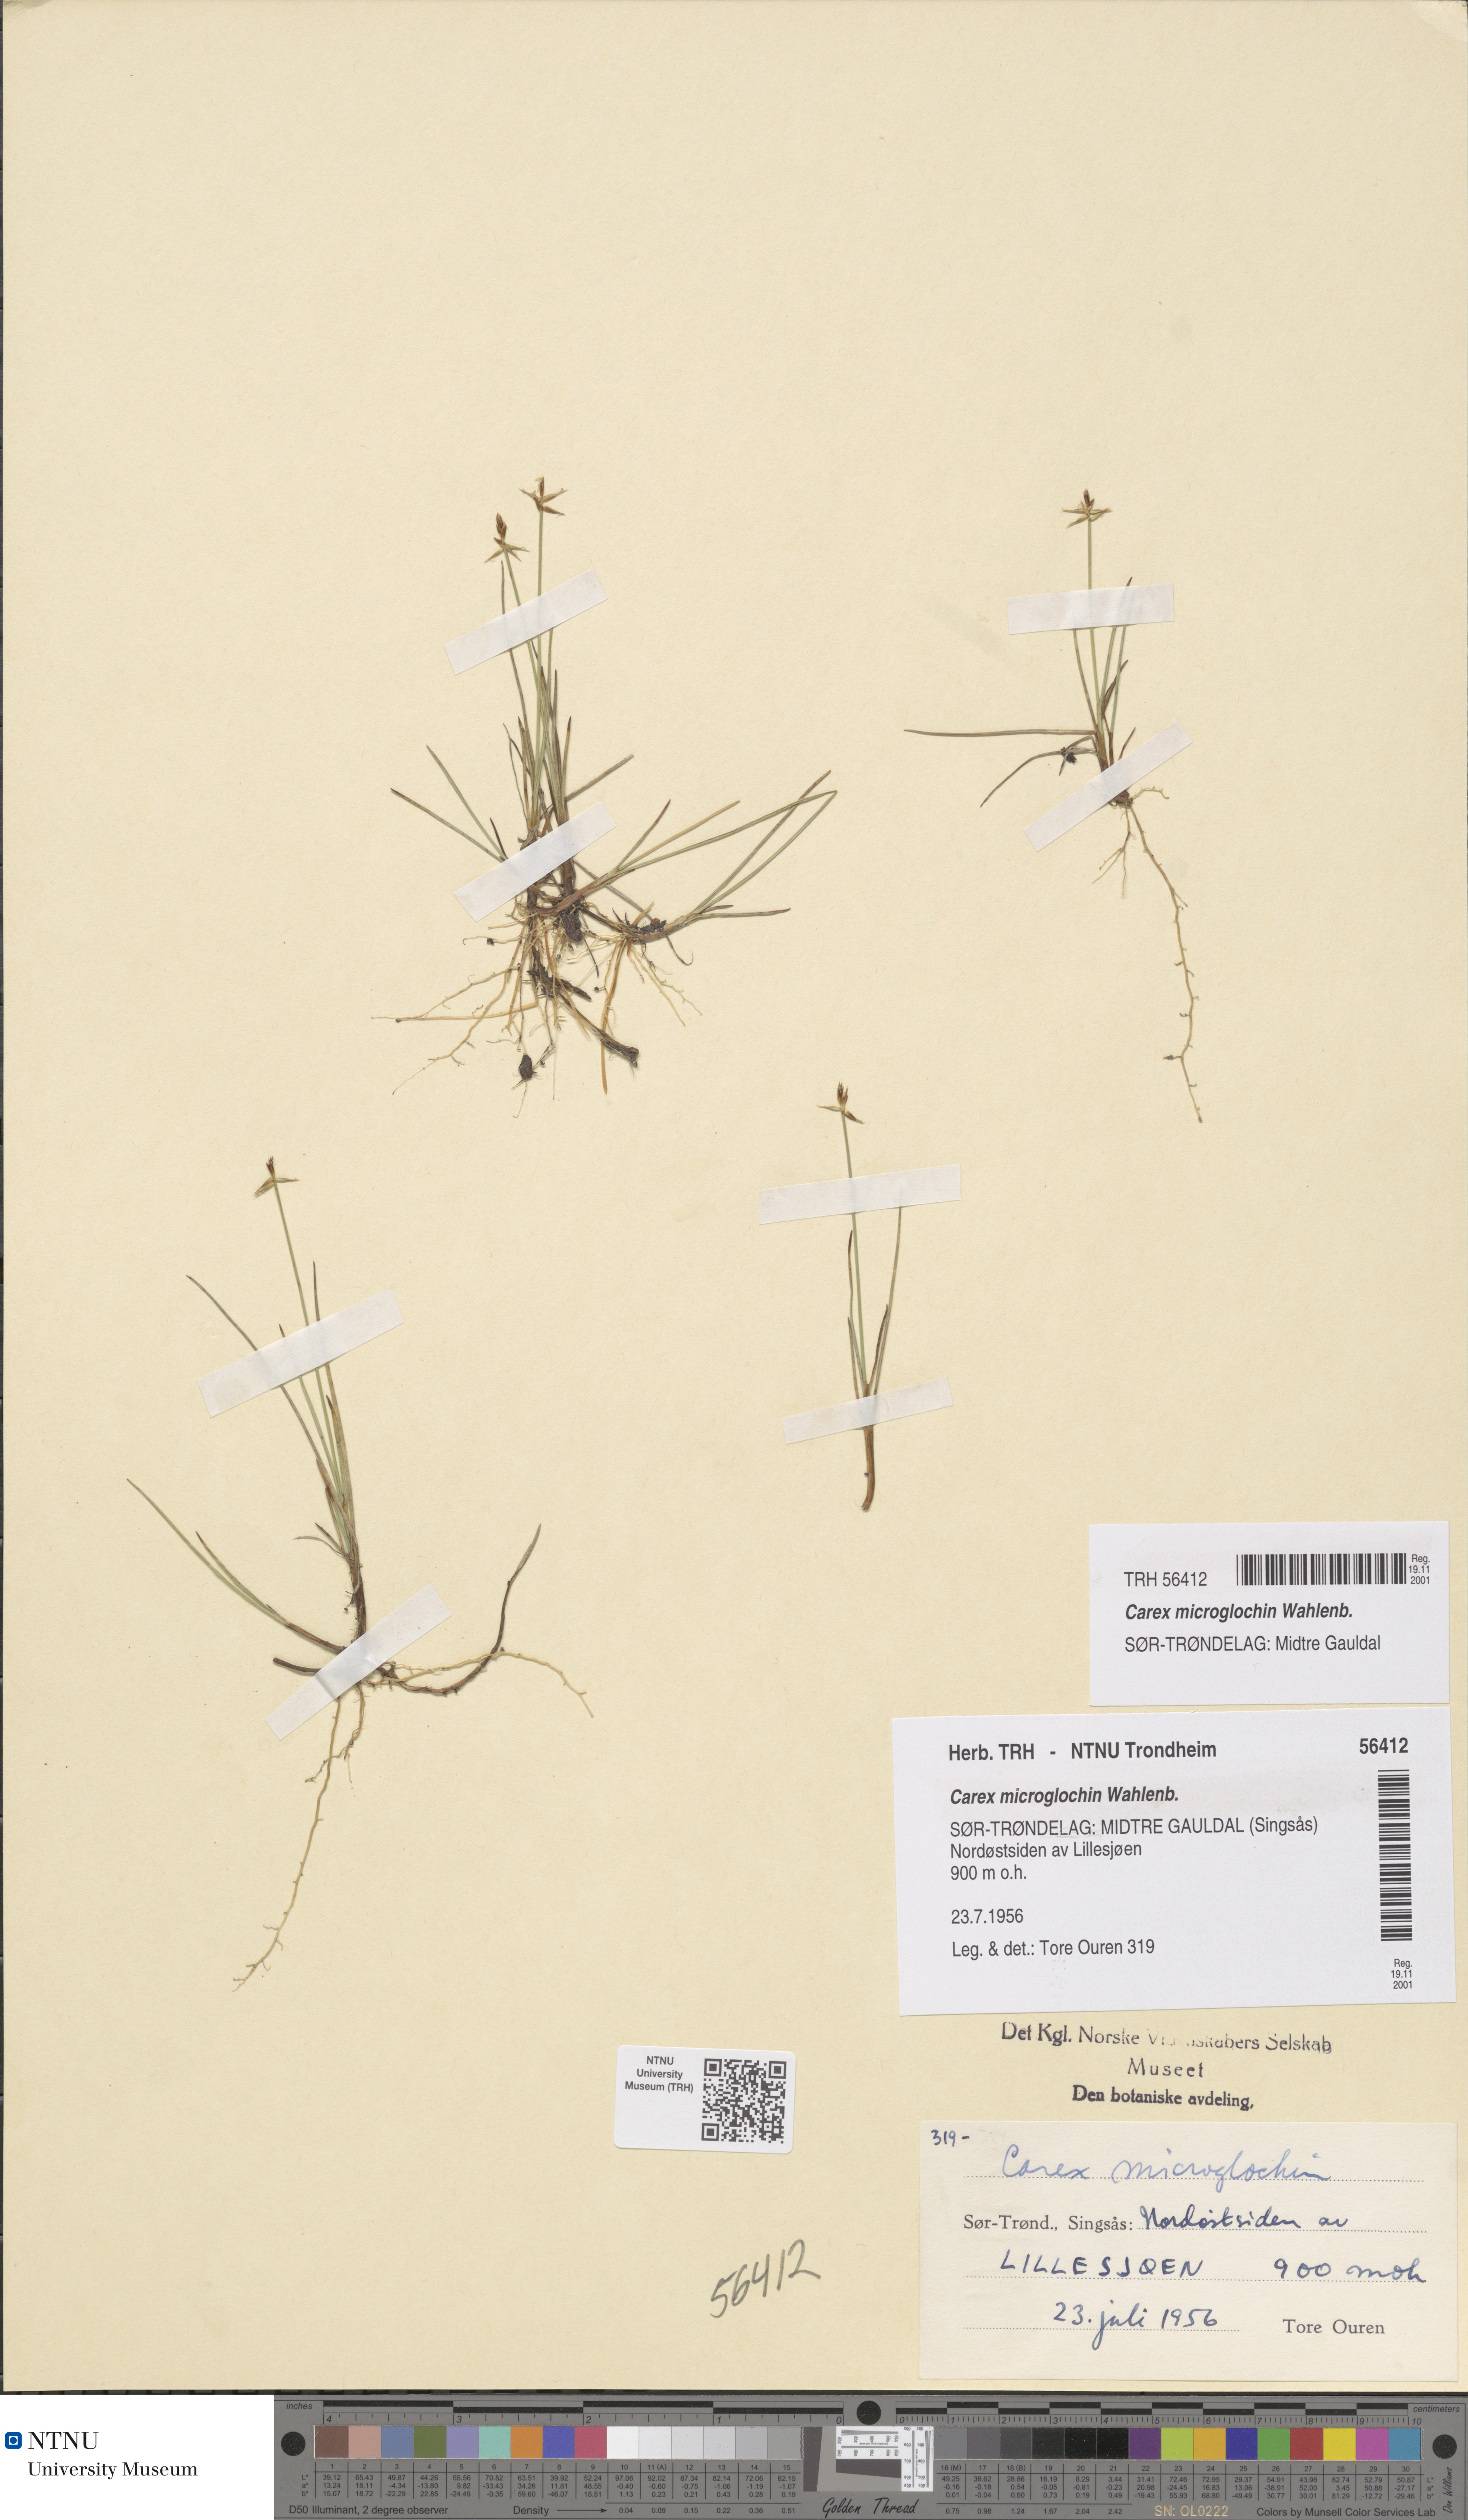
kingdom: Plantae
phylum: Tracheophyta
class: Liliopsida
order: Poales
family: Cyperaceae
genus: Carex
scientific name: Carex microglochin
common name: Bristle sedge
